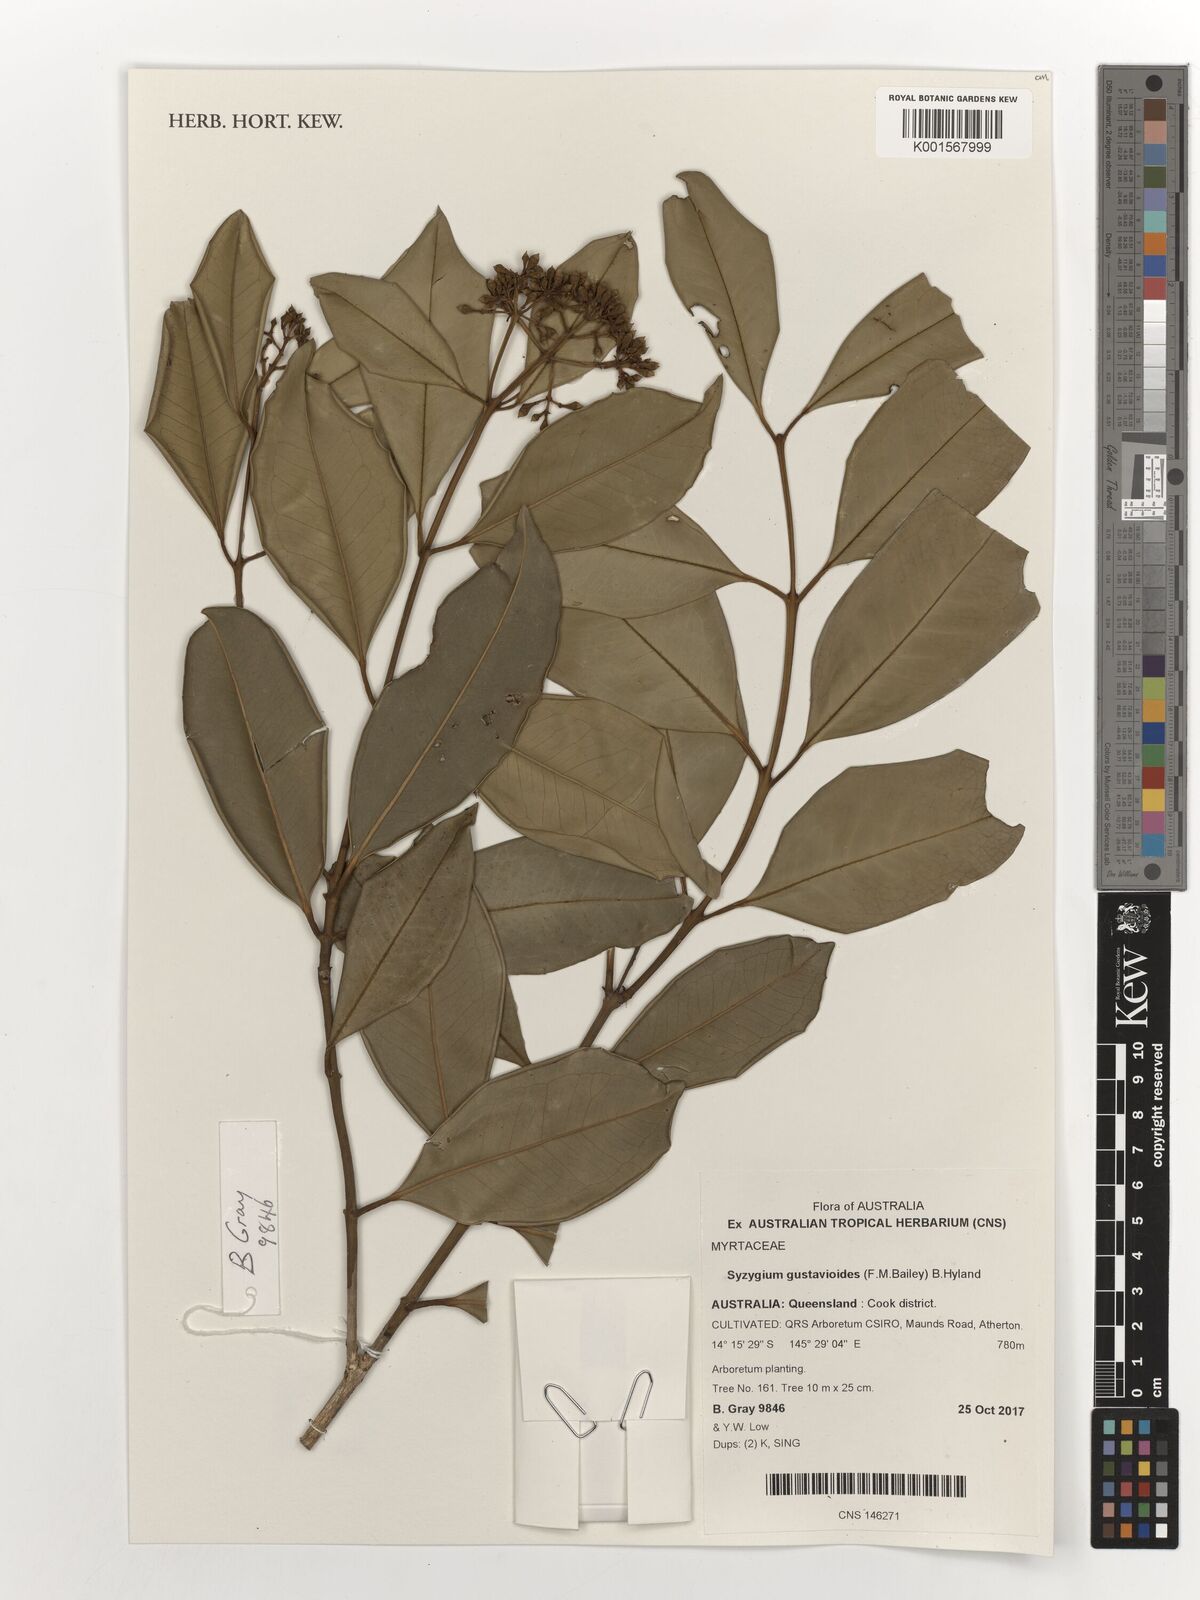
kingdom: Plantae
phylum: Tracheophyta
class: Magnoliopsida
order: Myrtales
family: Myrtaceae
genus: Syzygium
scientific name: Syzygium gustavioides
